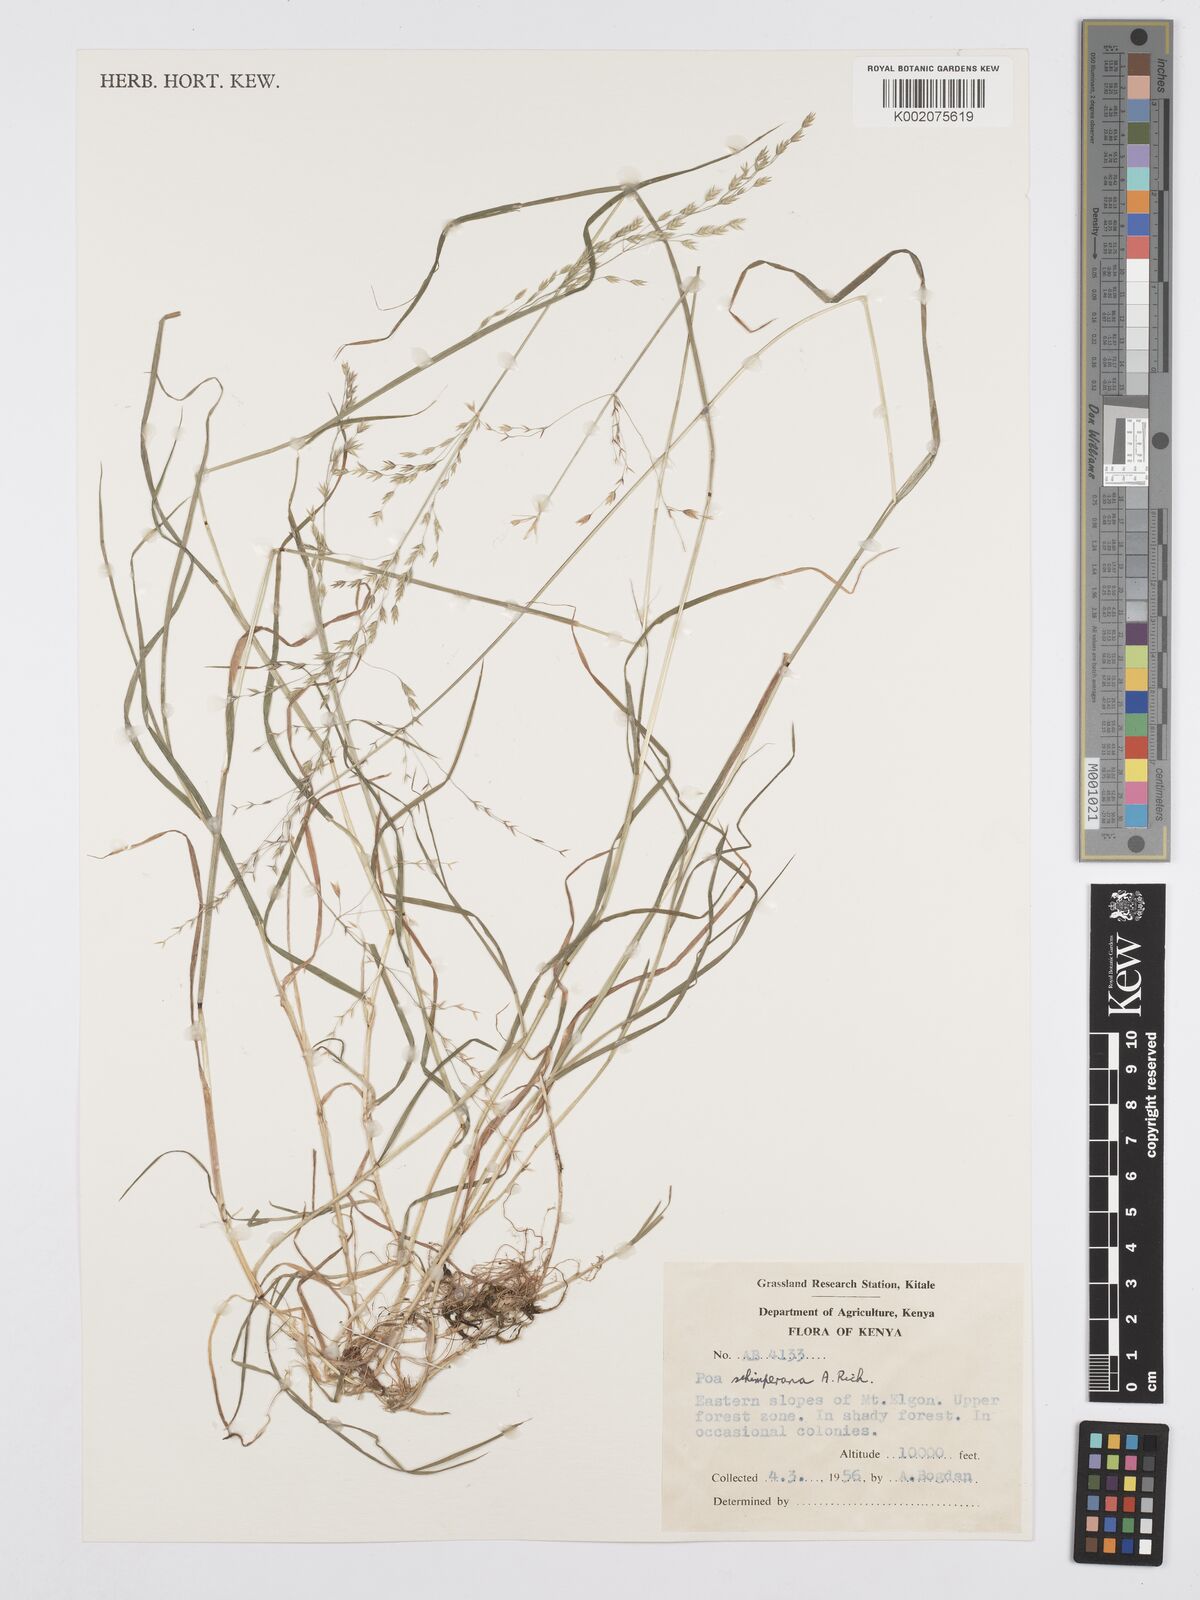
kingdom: Plantae
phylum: Tracheophyta
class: Liliopsida
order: Poales
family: Poaceae
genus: Poa
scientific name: Poa schimperiana
